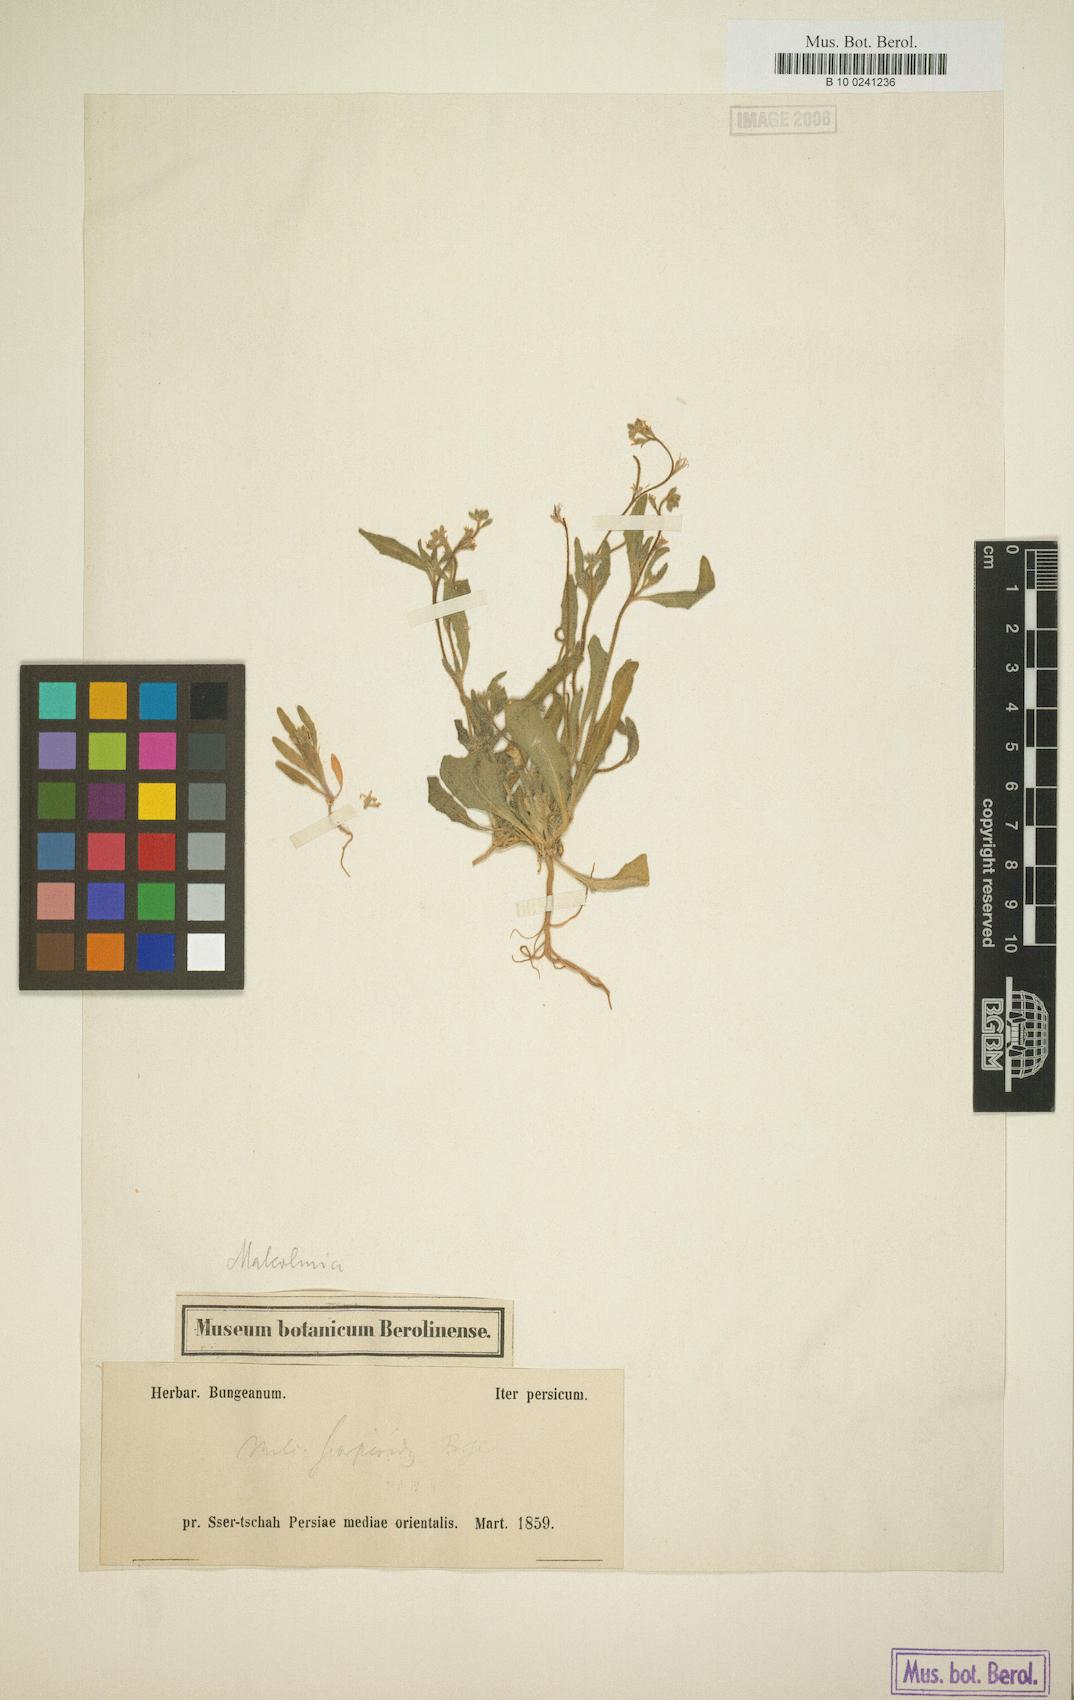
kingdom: Plantae
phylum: Tracheophyta
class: Magnoliopsida
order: Brassicales
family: Brassicaceae
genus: Strigosella
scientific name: Strigosella scorpioides
